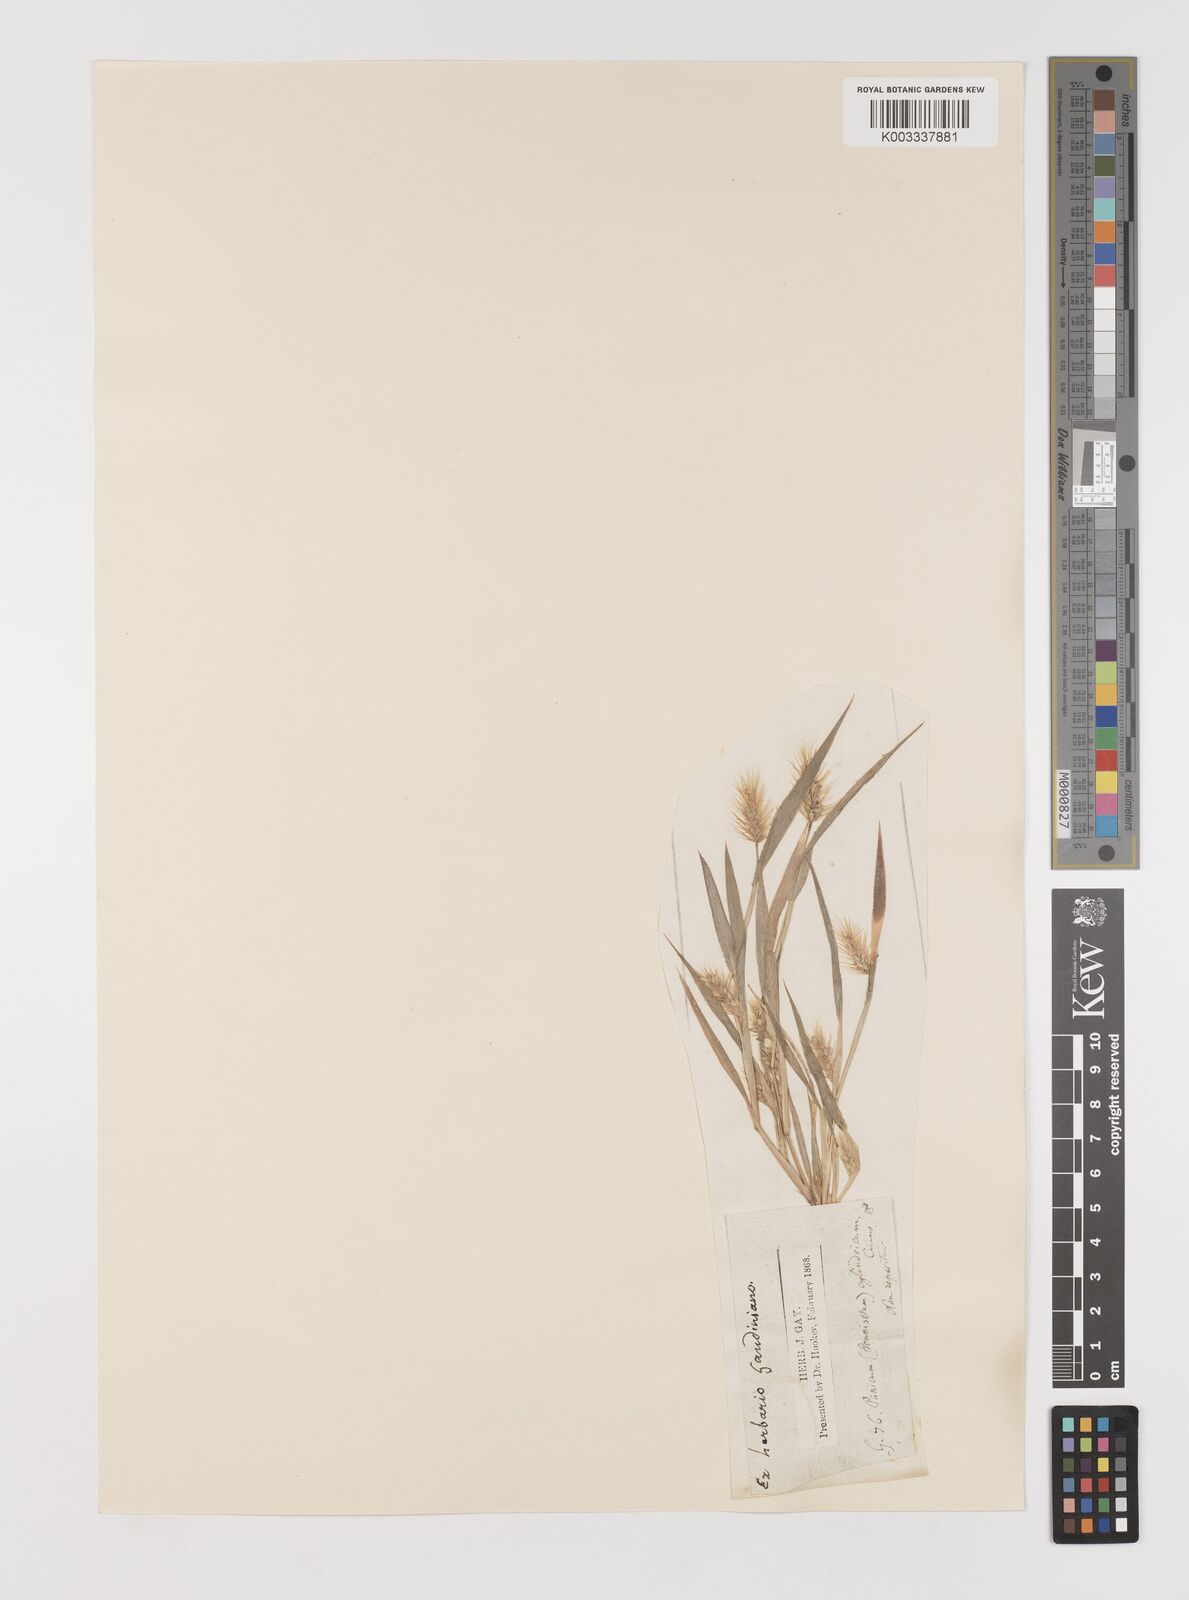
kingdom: Plantae
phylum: Tracheophyta
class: Liliopsida
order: Poales
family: Poaceae
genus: Setaria
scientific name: Setaria viridis
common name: Green bristlegrass
